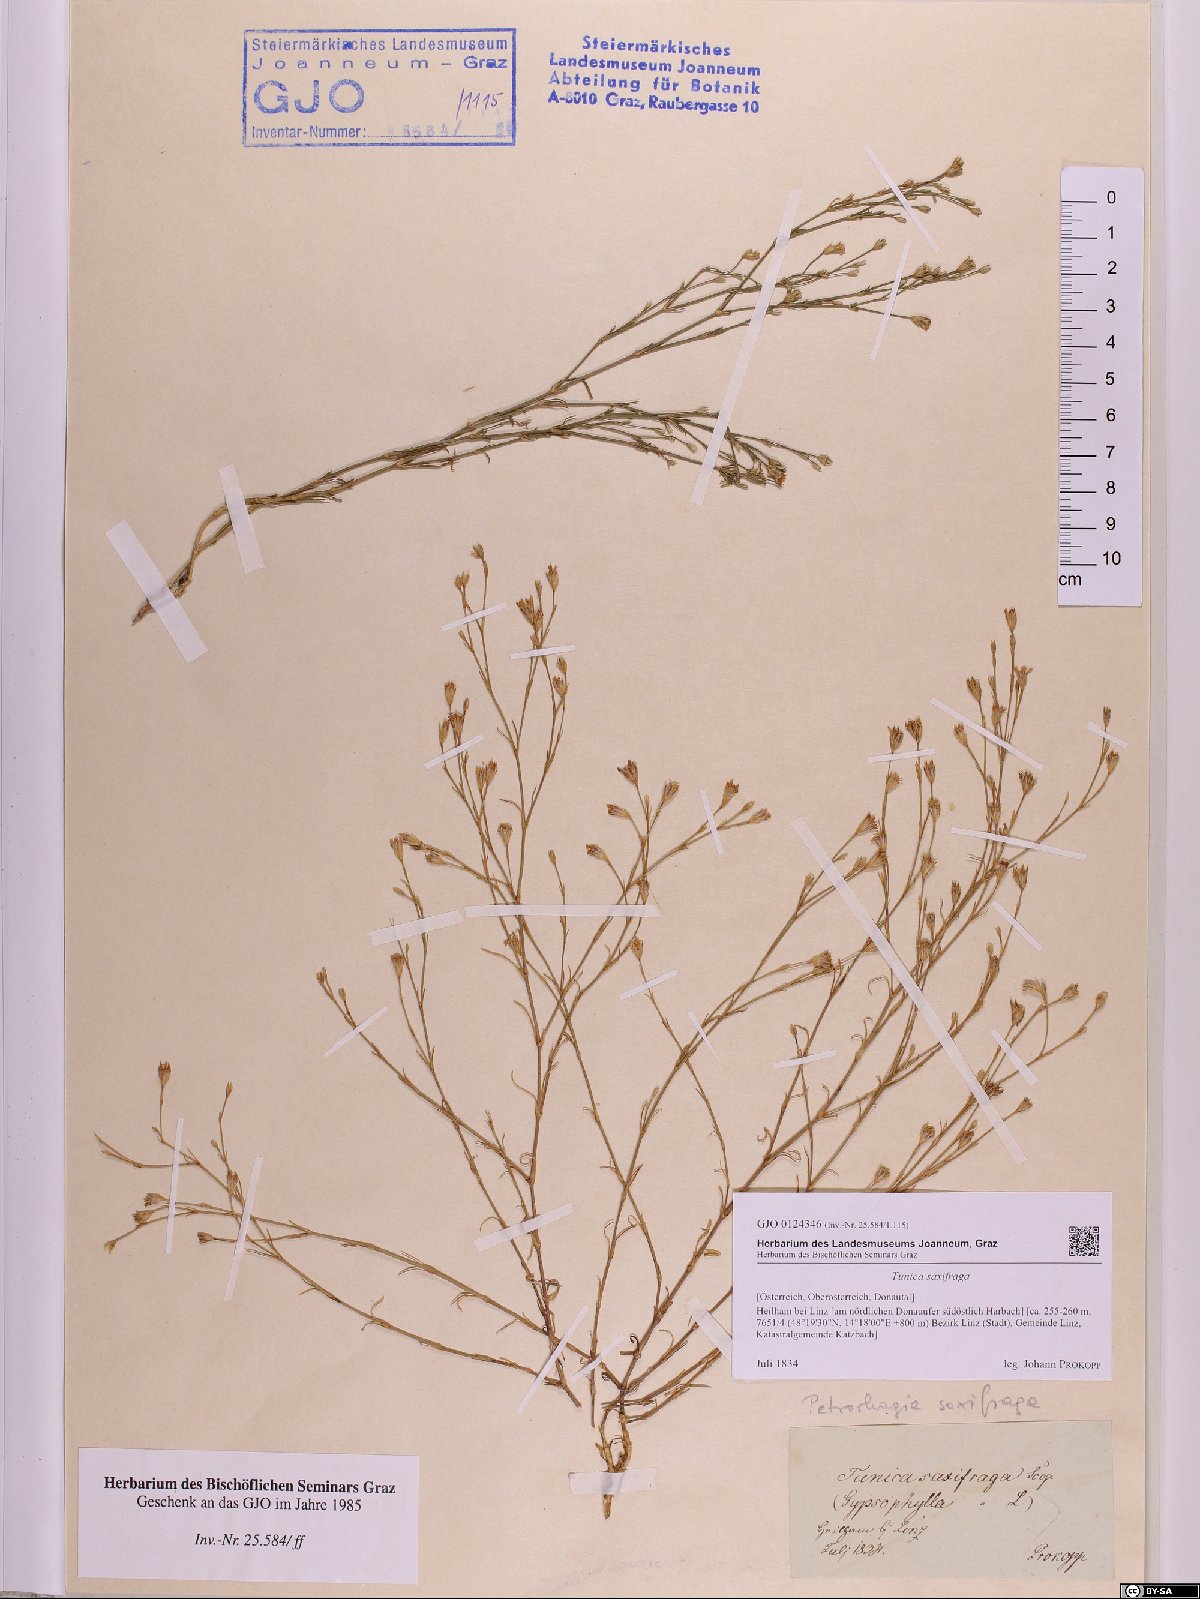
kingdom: Plantae
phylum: Tracheophyta
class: Magnoliopsida
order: Caryophyllales
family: Caryophyllaceae
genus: Petrorhagia
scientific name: Petrorhagia saxifraga
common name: Tunicflower
